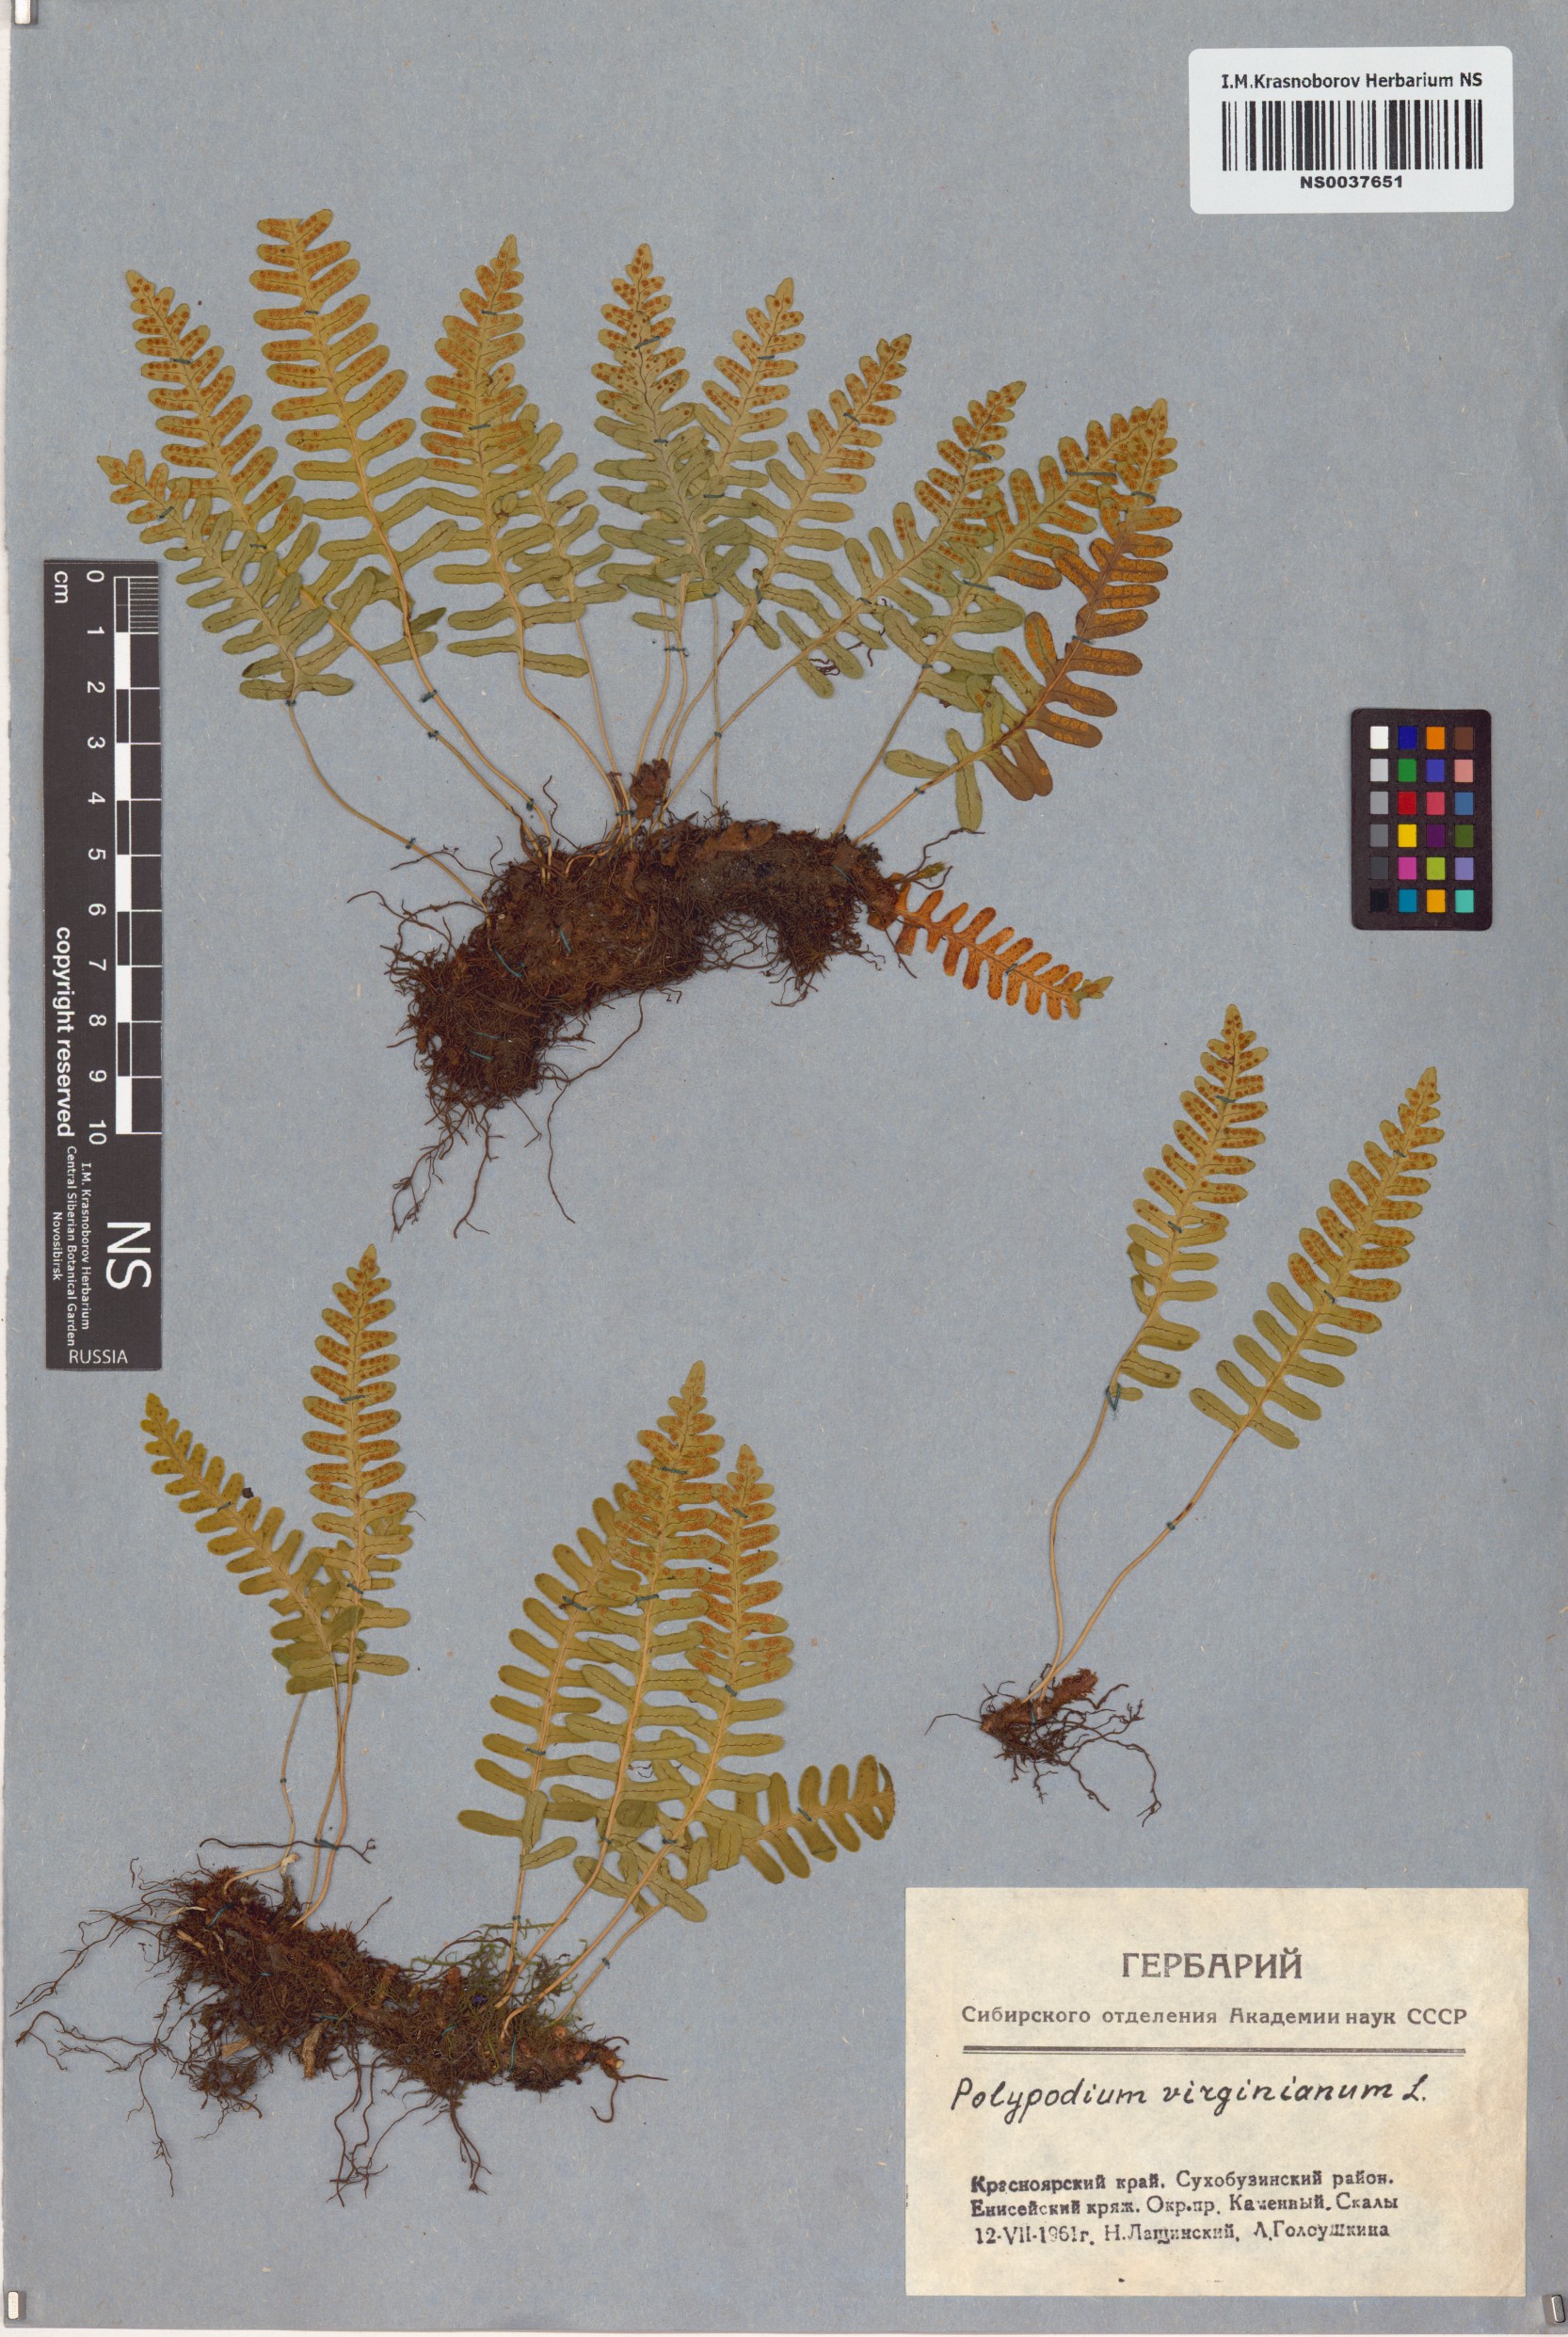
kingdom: Plantae
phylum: Tracheophyta
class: Polypodiopsida
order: Polypodiales
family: Polypodiaceae
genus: Polypodium
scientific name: Polypodium virginianum
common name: American wall fern
